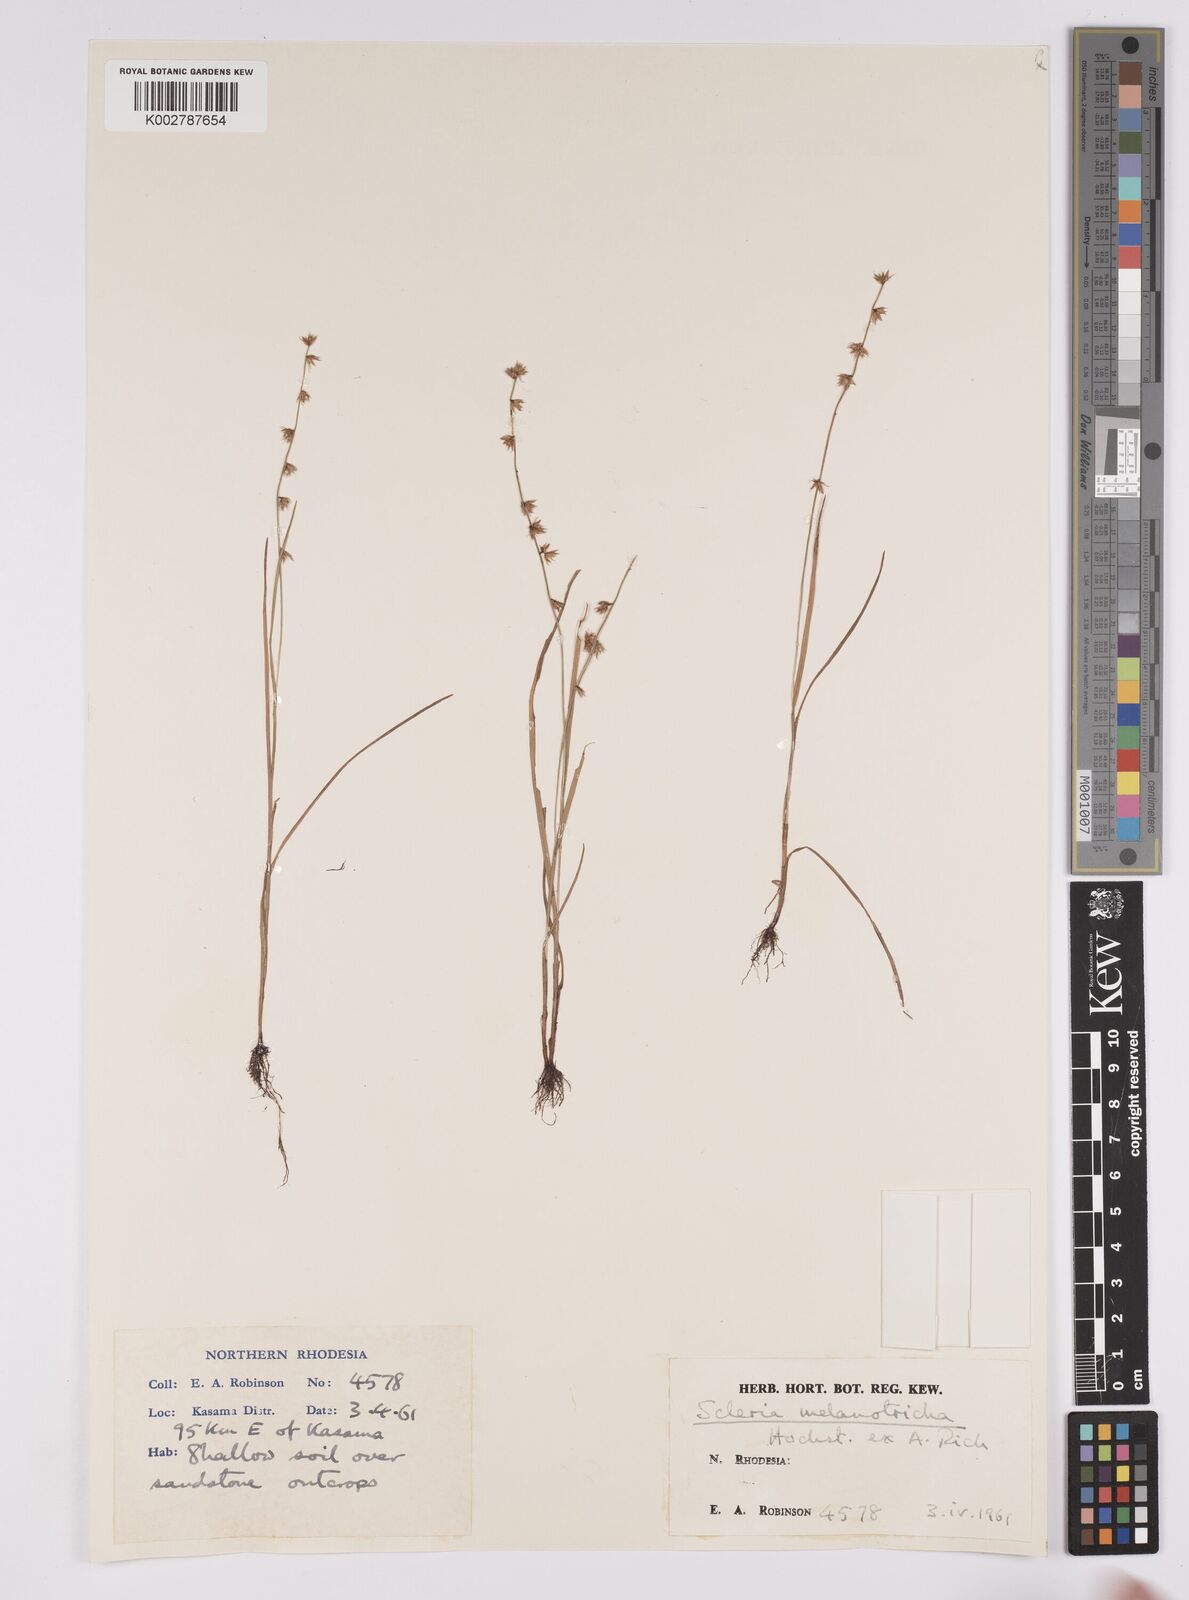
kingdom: Plantae
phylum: Tracheophyta
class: Liliopsida
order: Poales
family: Cyperaceae
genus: Scleria
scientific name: Scleria melanotricha
